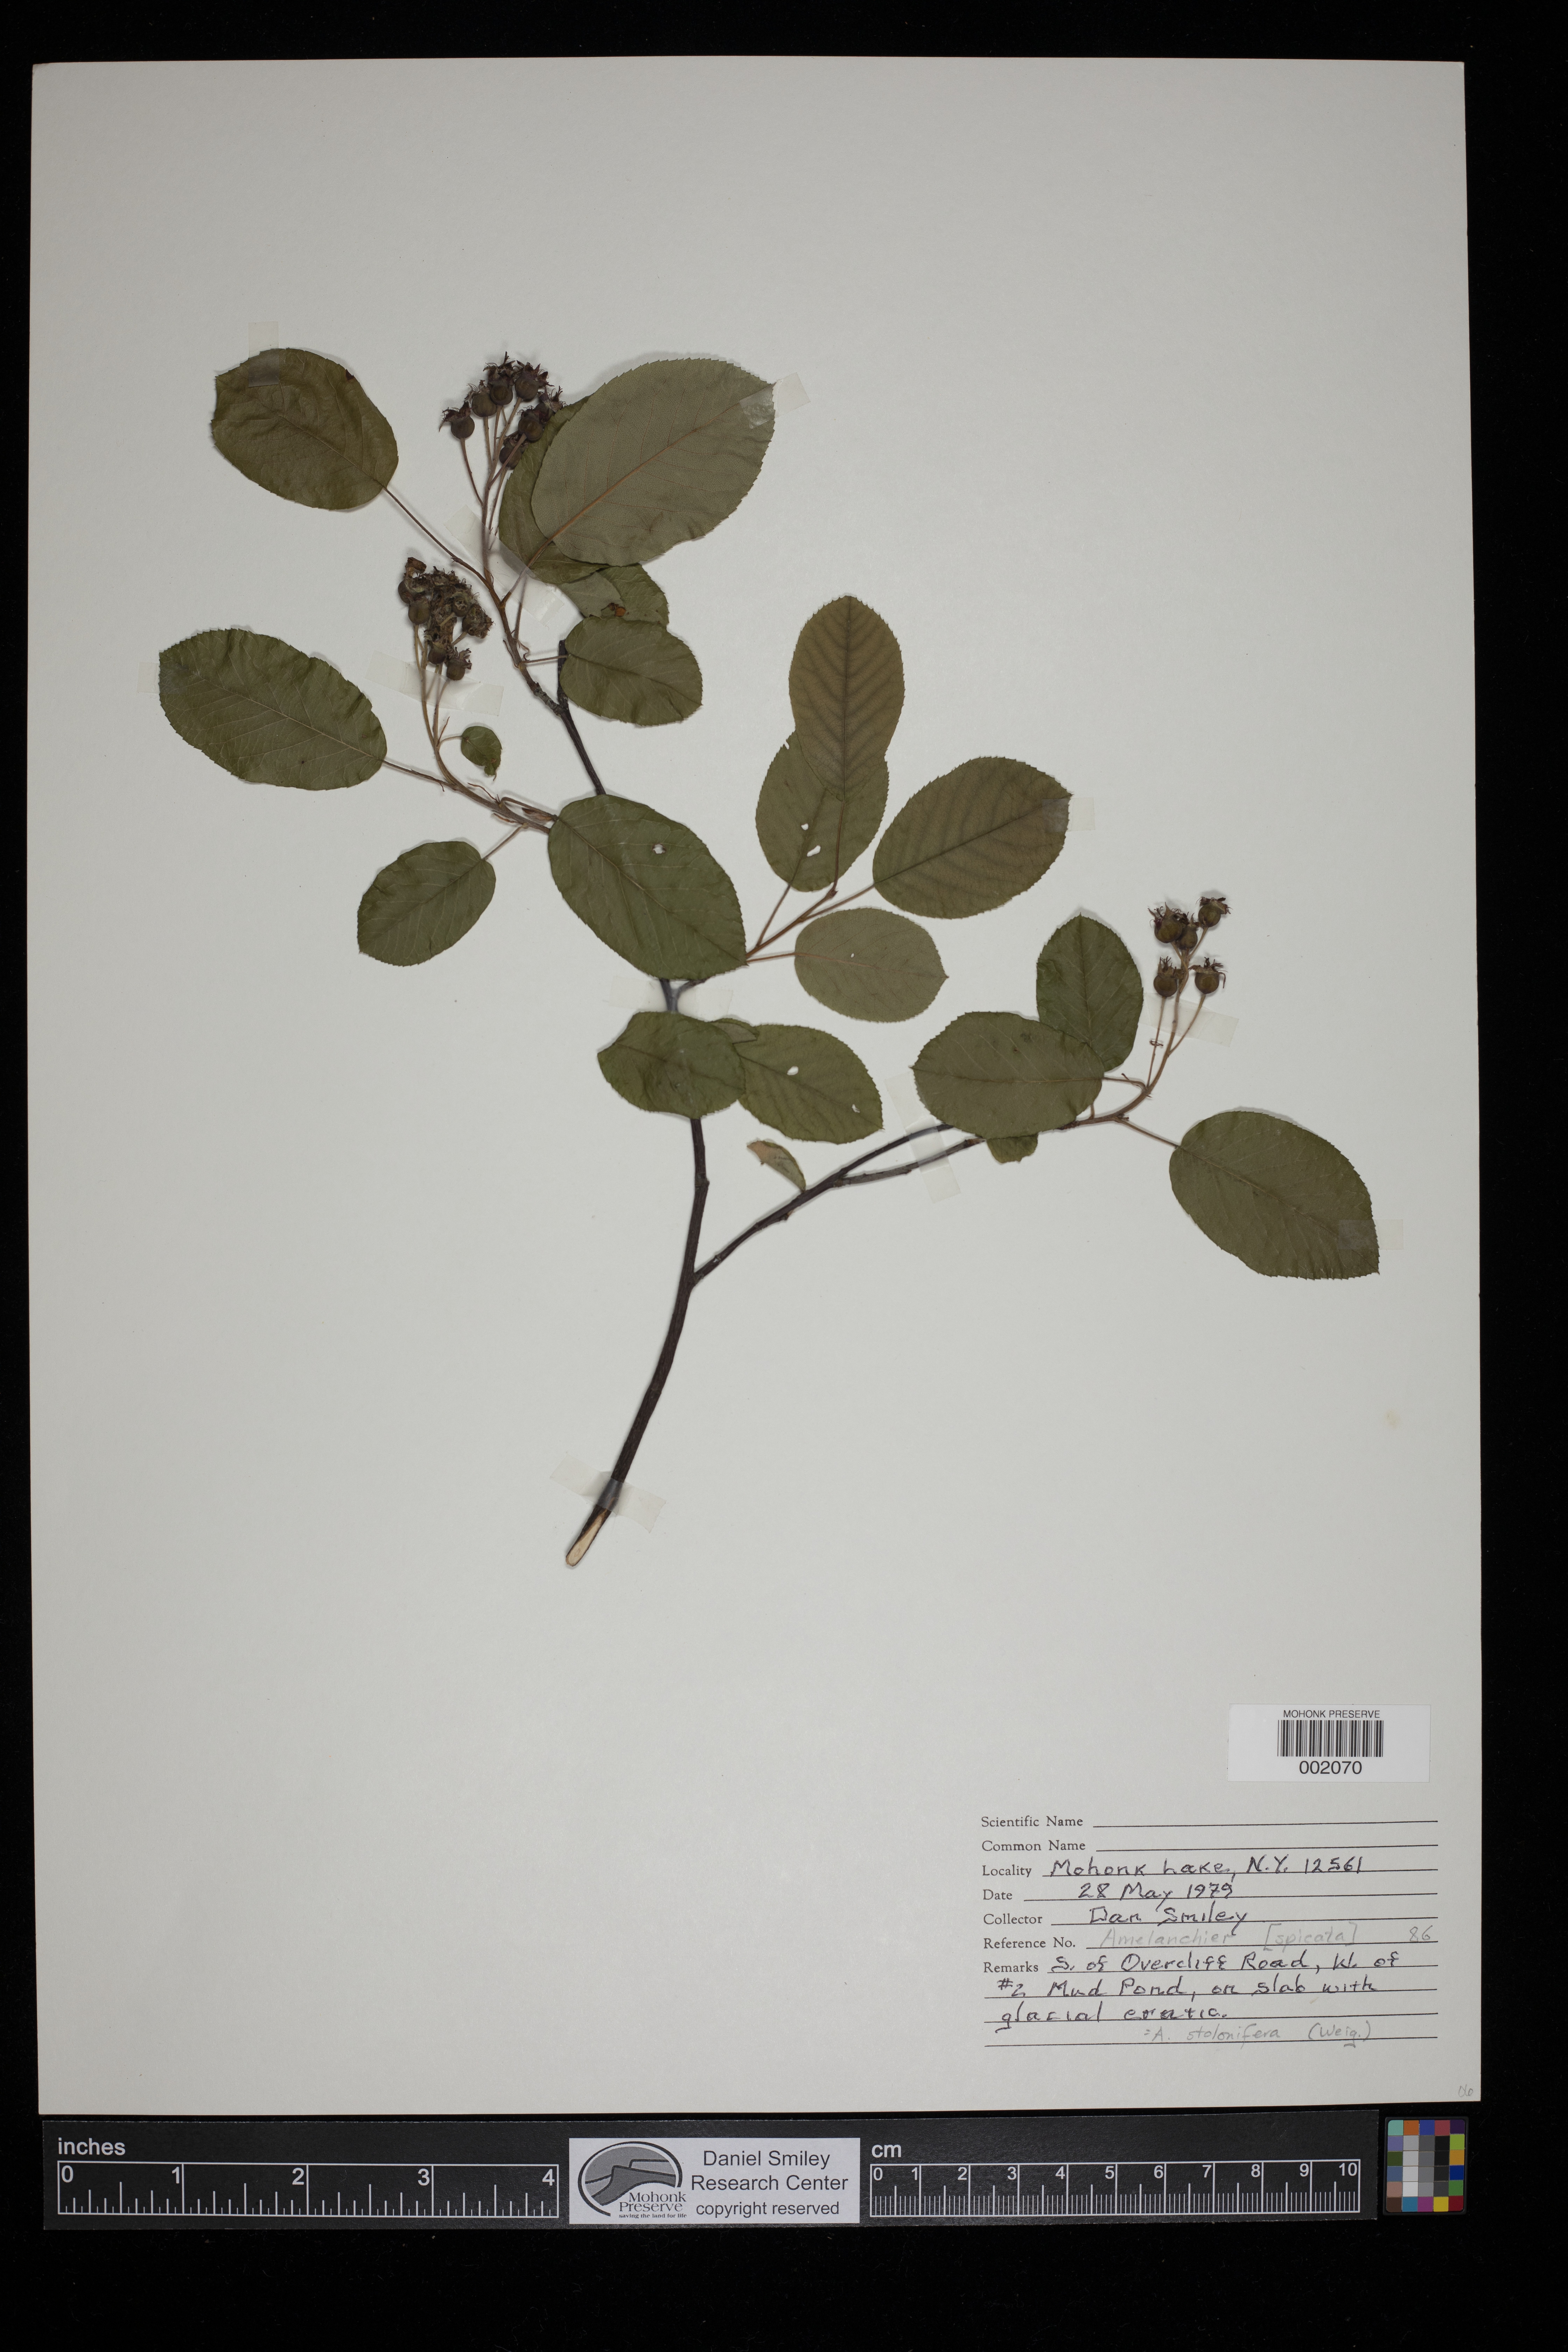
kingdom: Plantae
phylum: Tracheophyta
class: Magnoliopsida
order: Rosales
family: Rosaceae
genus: Amelanchier
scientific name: Amelanchier stolonifera
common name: Running serviceberry
